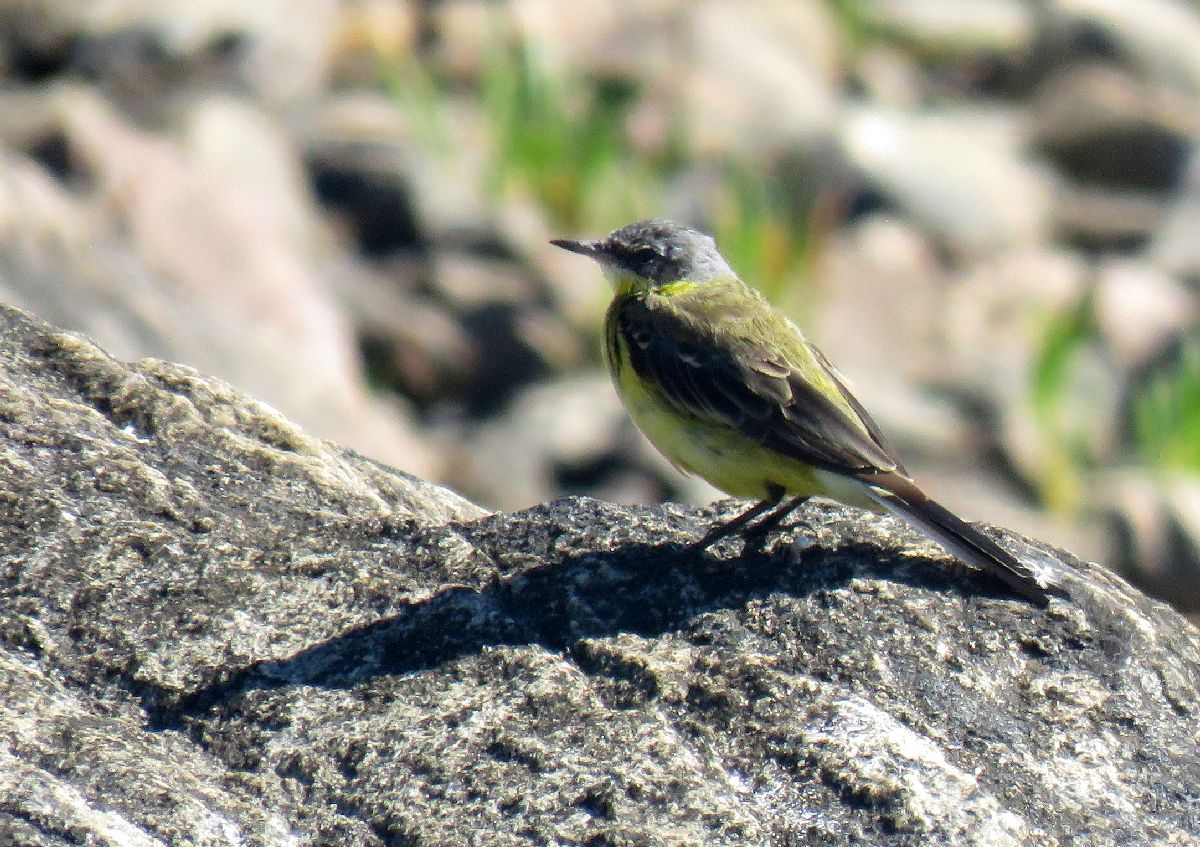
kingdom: Animalia
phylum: Chordata
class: Aves
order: Passeriformes
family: Motacillidae
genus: Motacilla
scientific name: Motacilla flava
